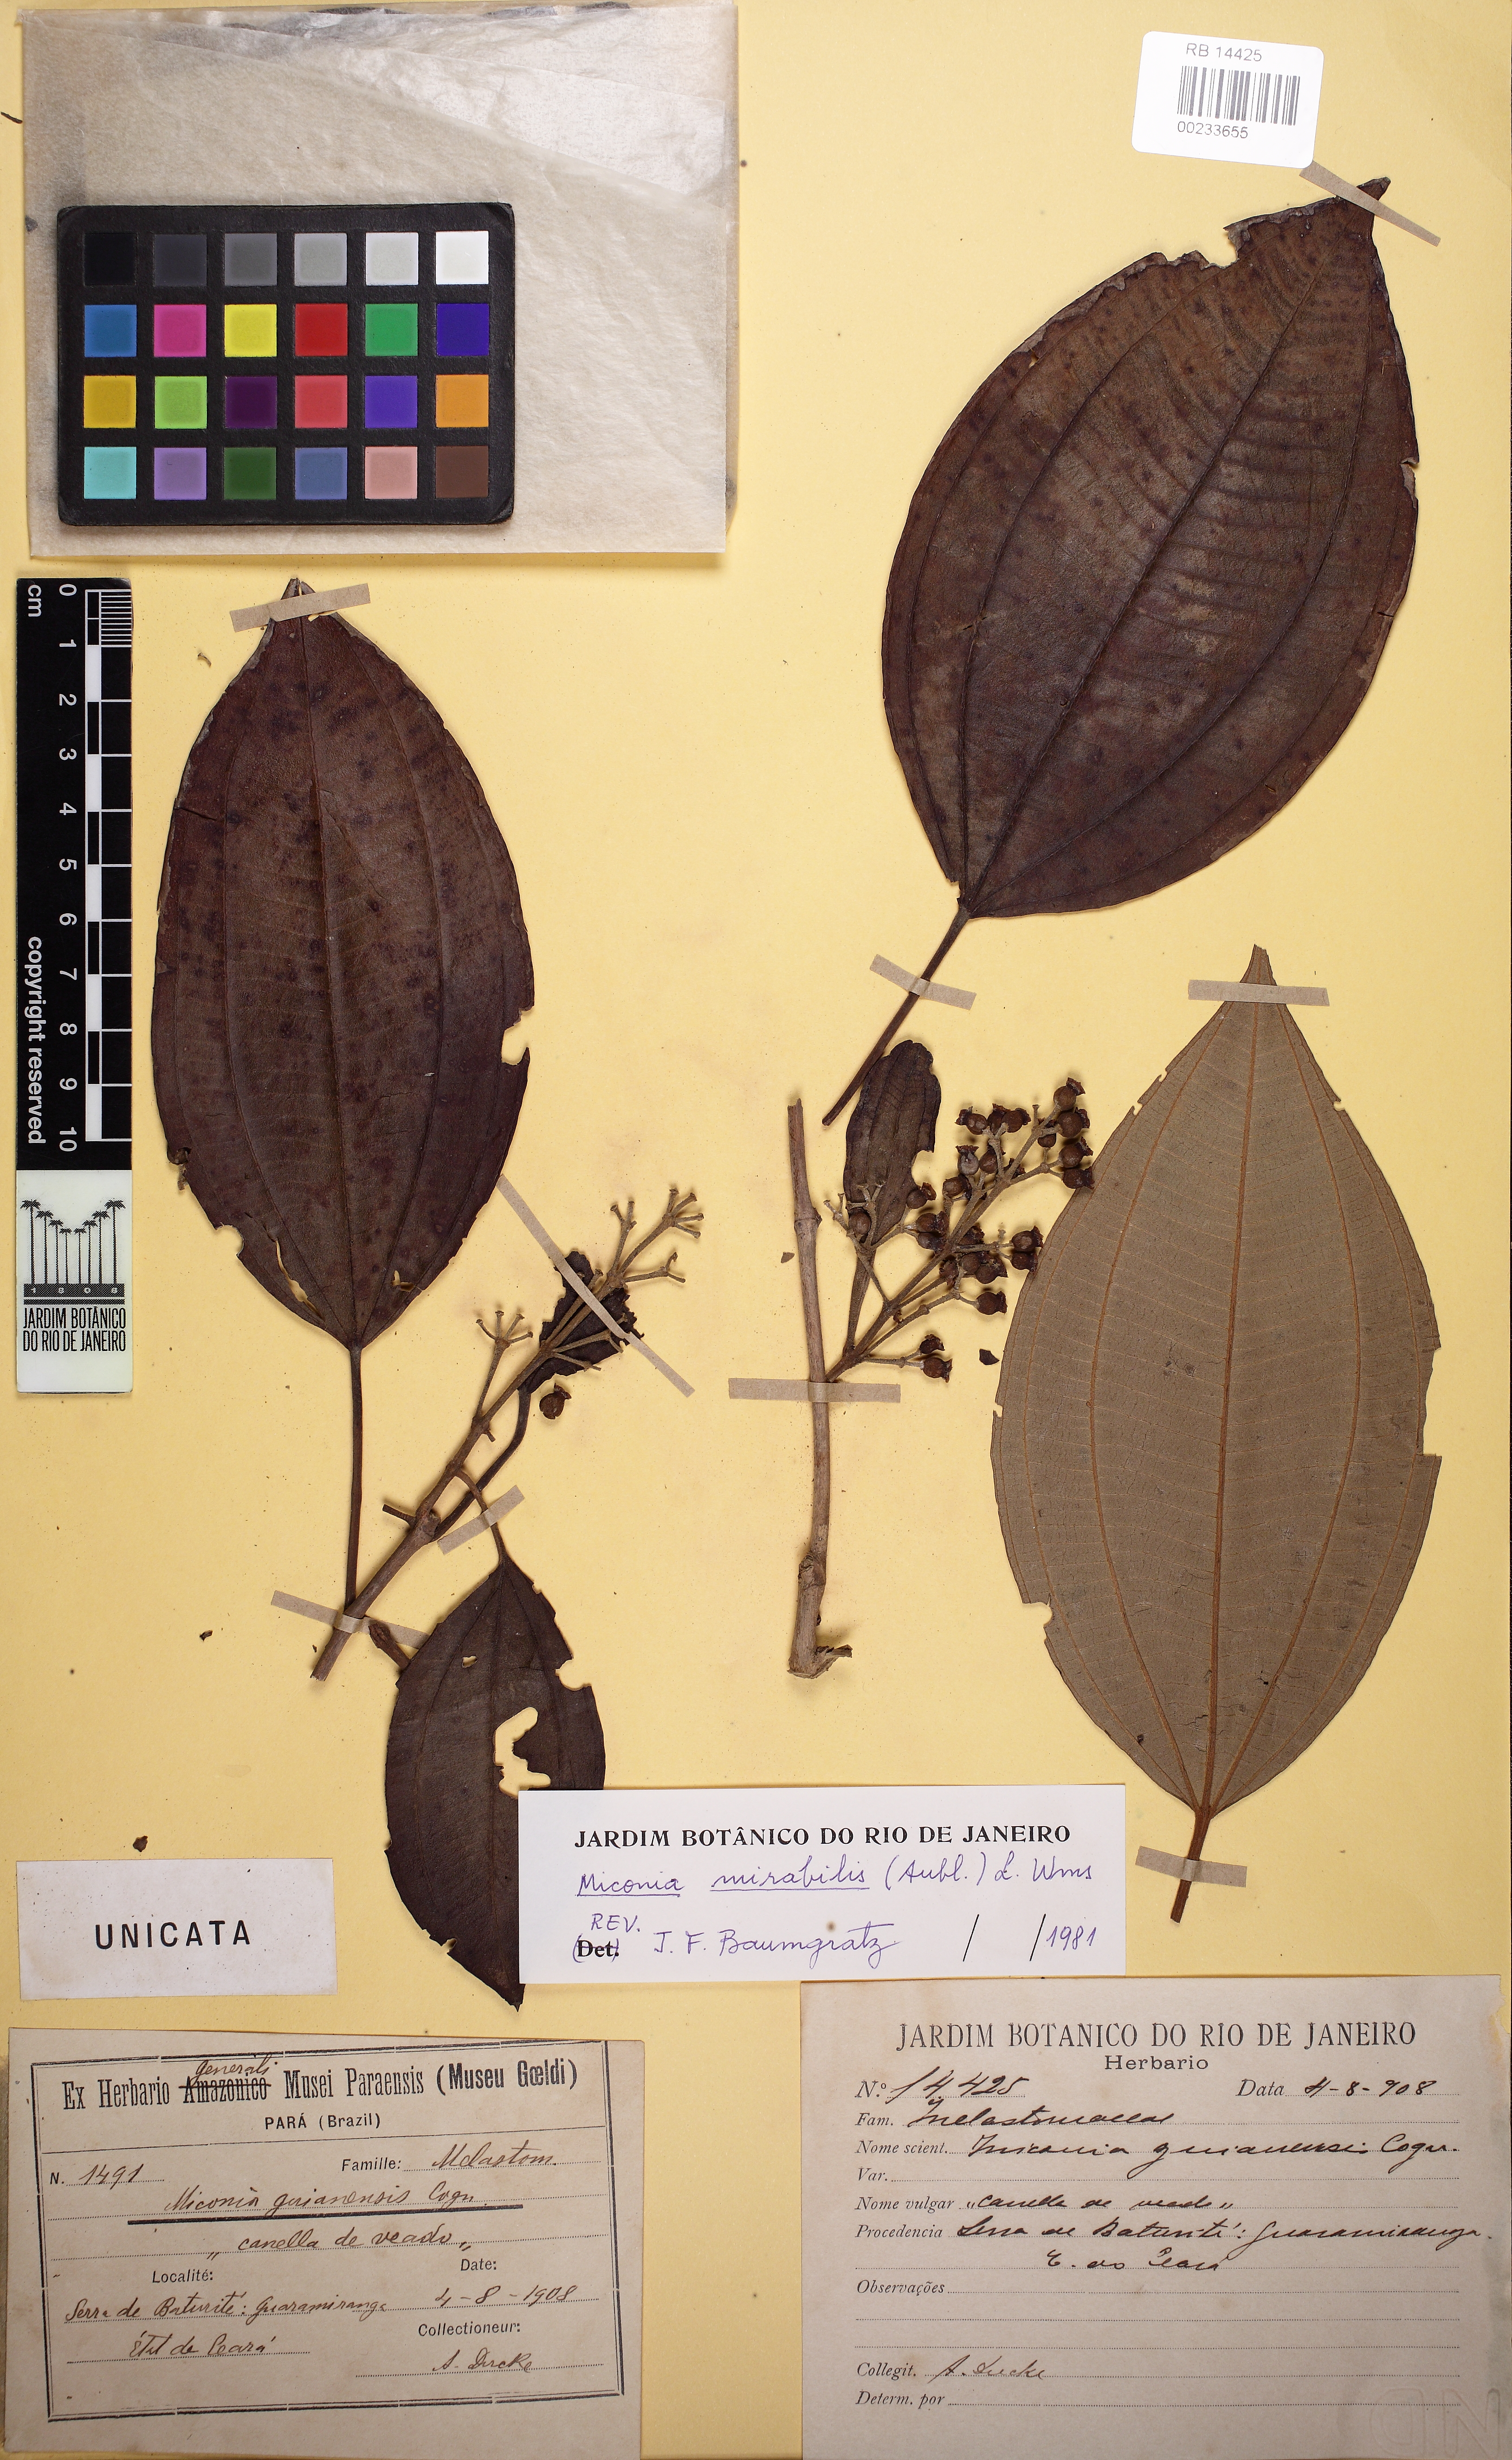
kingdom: Plantae
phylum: Tracheophyta
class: Magnoliopsida
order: Myrtales
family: Melastomataceae
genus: Miconia
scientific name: Miconia mirabilis
